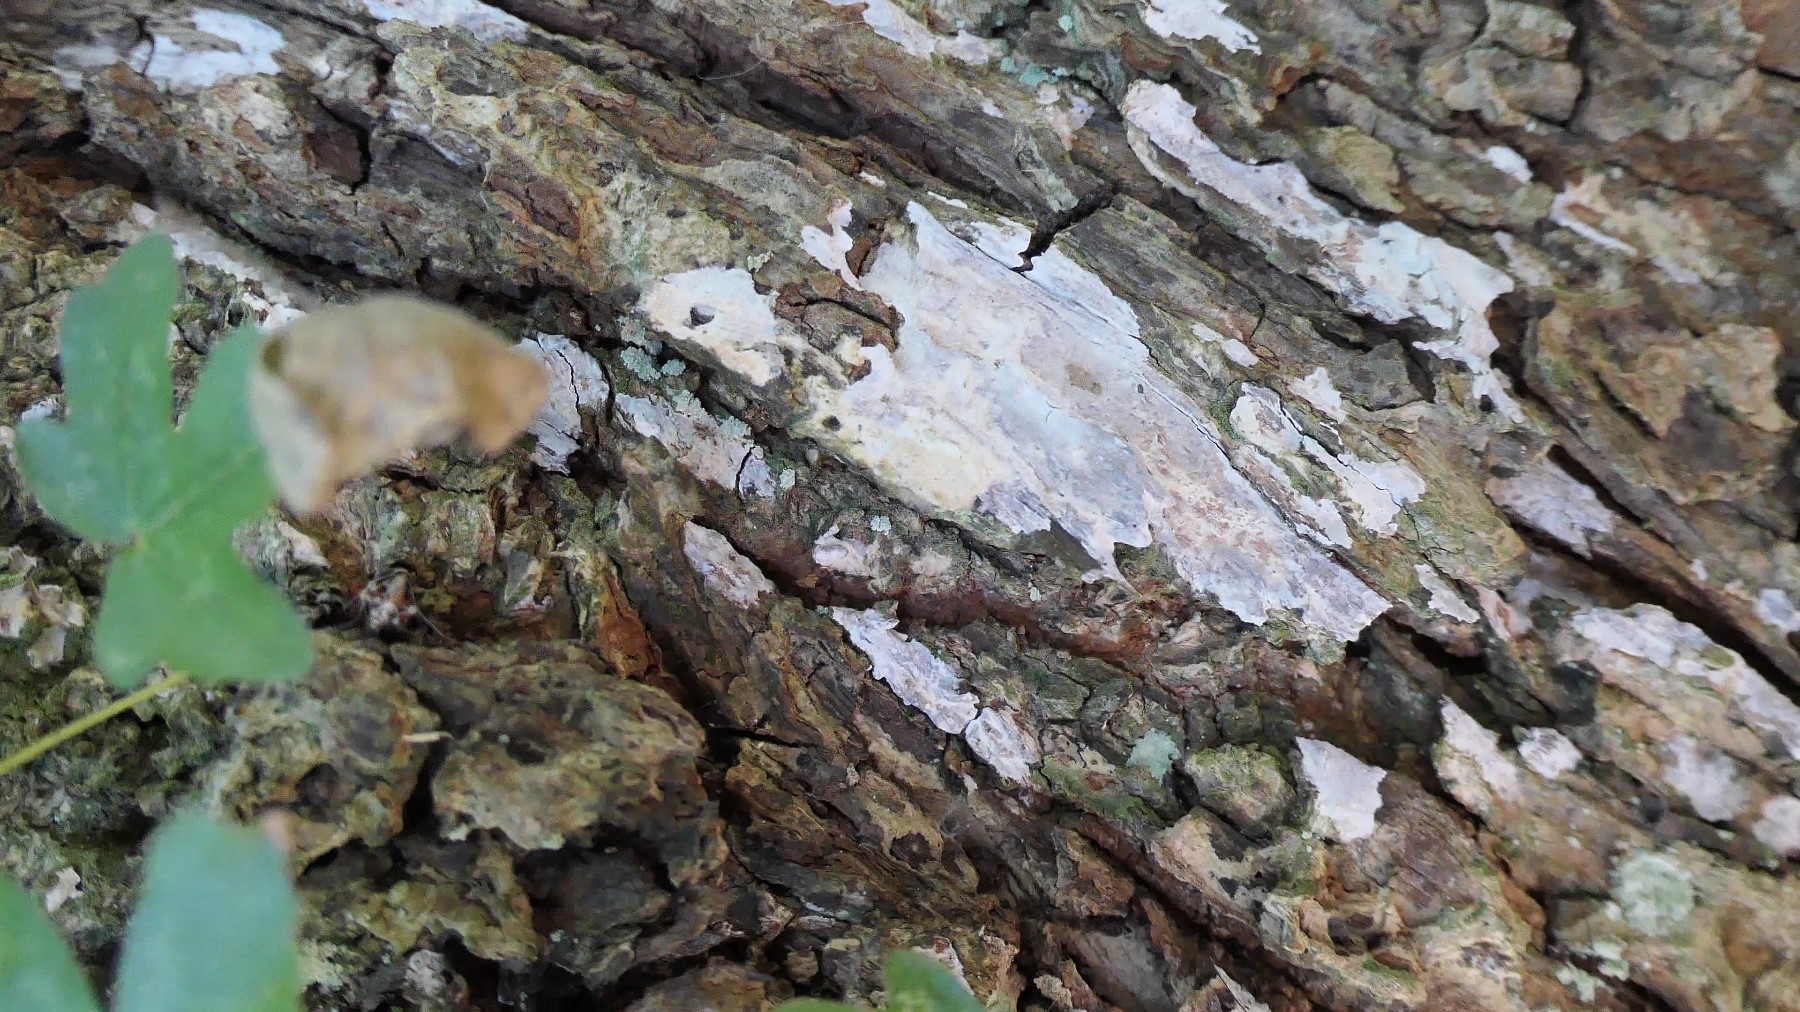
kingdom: Fungi
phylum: Basidiomycota
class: Agaricomycetes
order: Agaricales
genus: Dendrothele
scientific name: Dendrothele acerina
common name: navr-kalkplet
